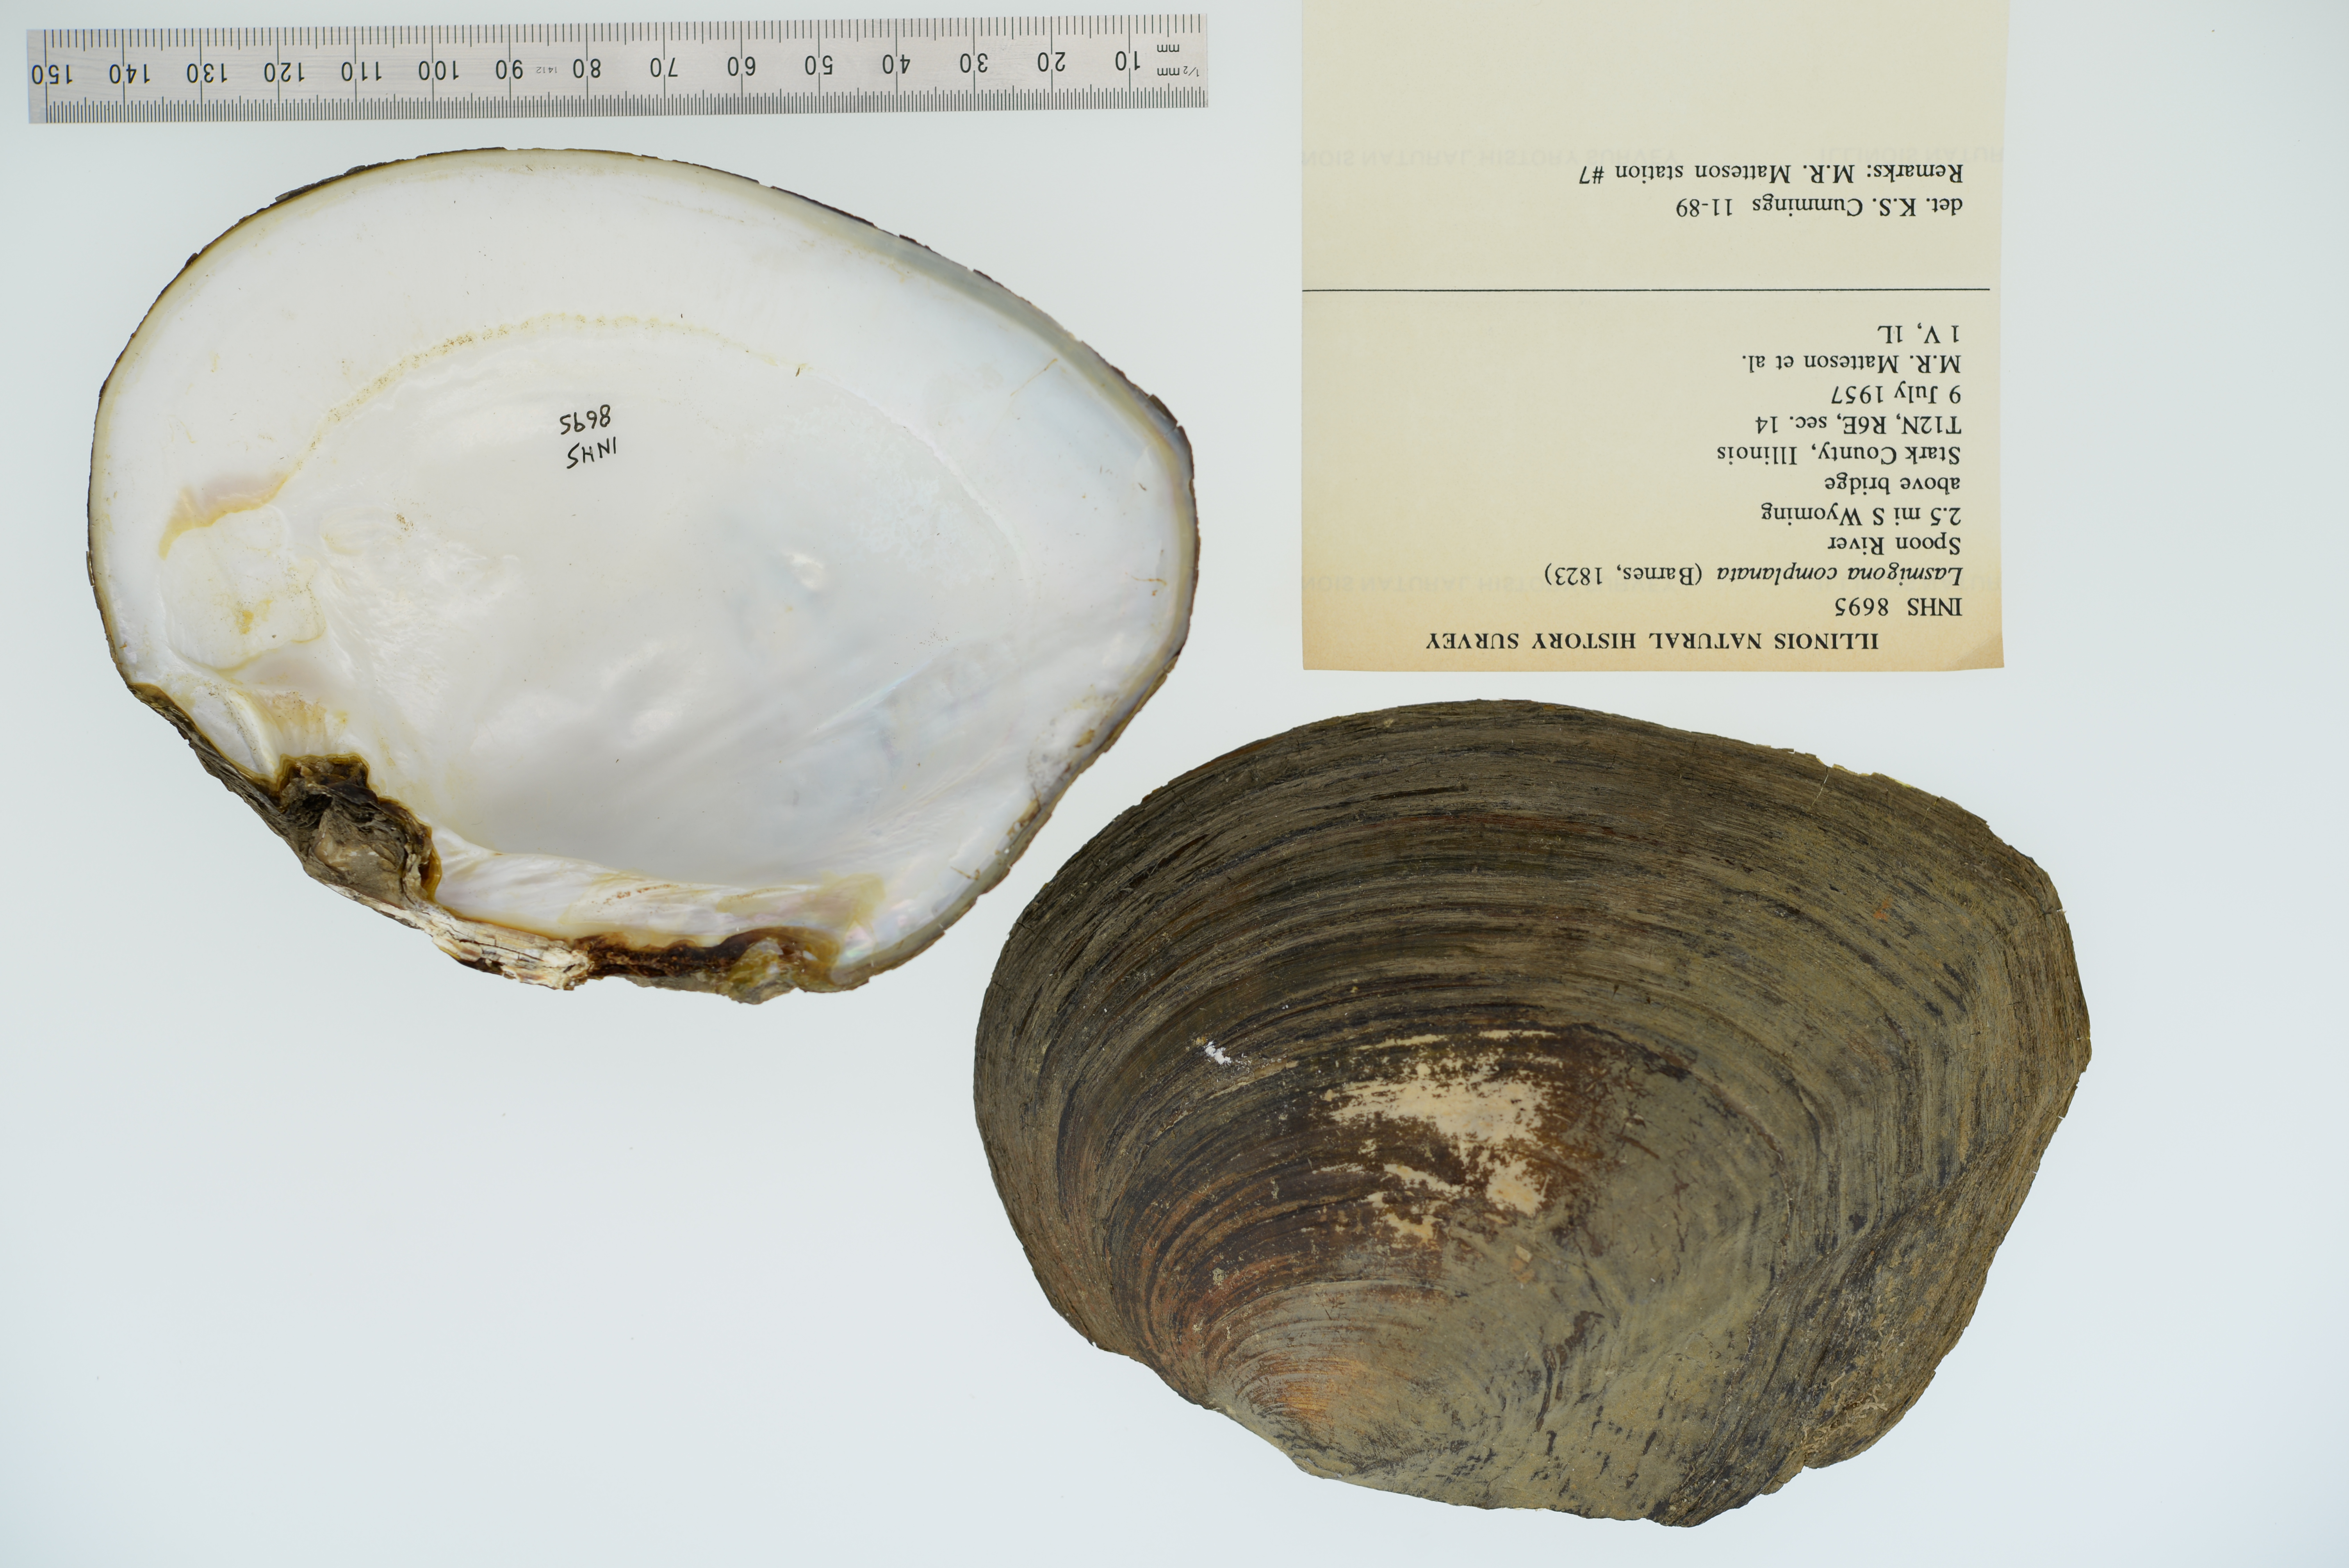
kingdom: Animalia
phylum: Mollusca
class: Bivalvia
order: Unionida
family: Unionidae
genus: Lasmigona
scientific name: Lasmigona complanata
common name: White heelsplitter
